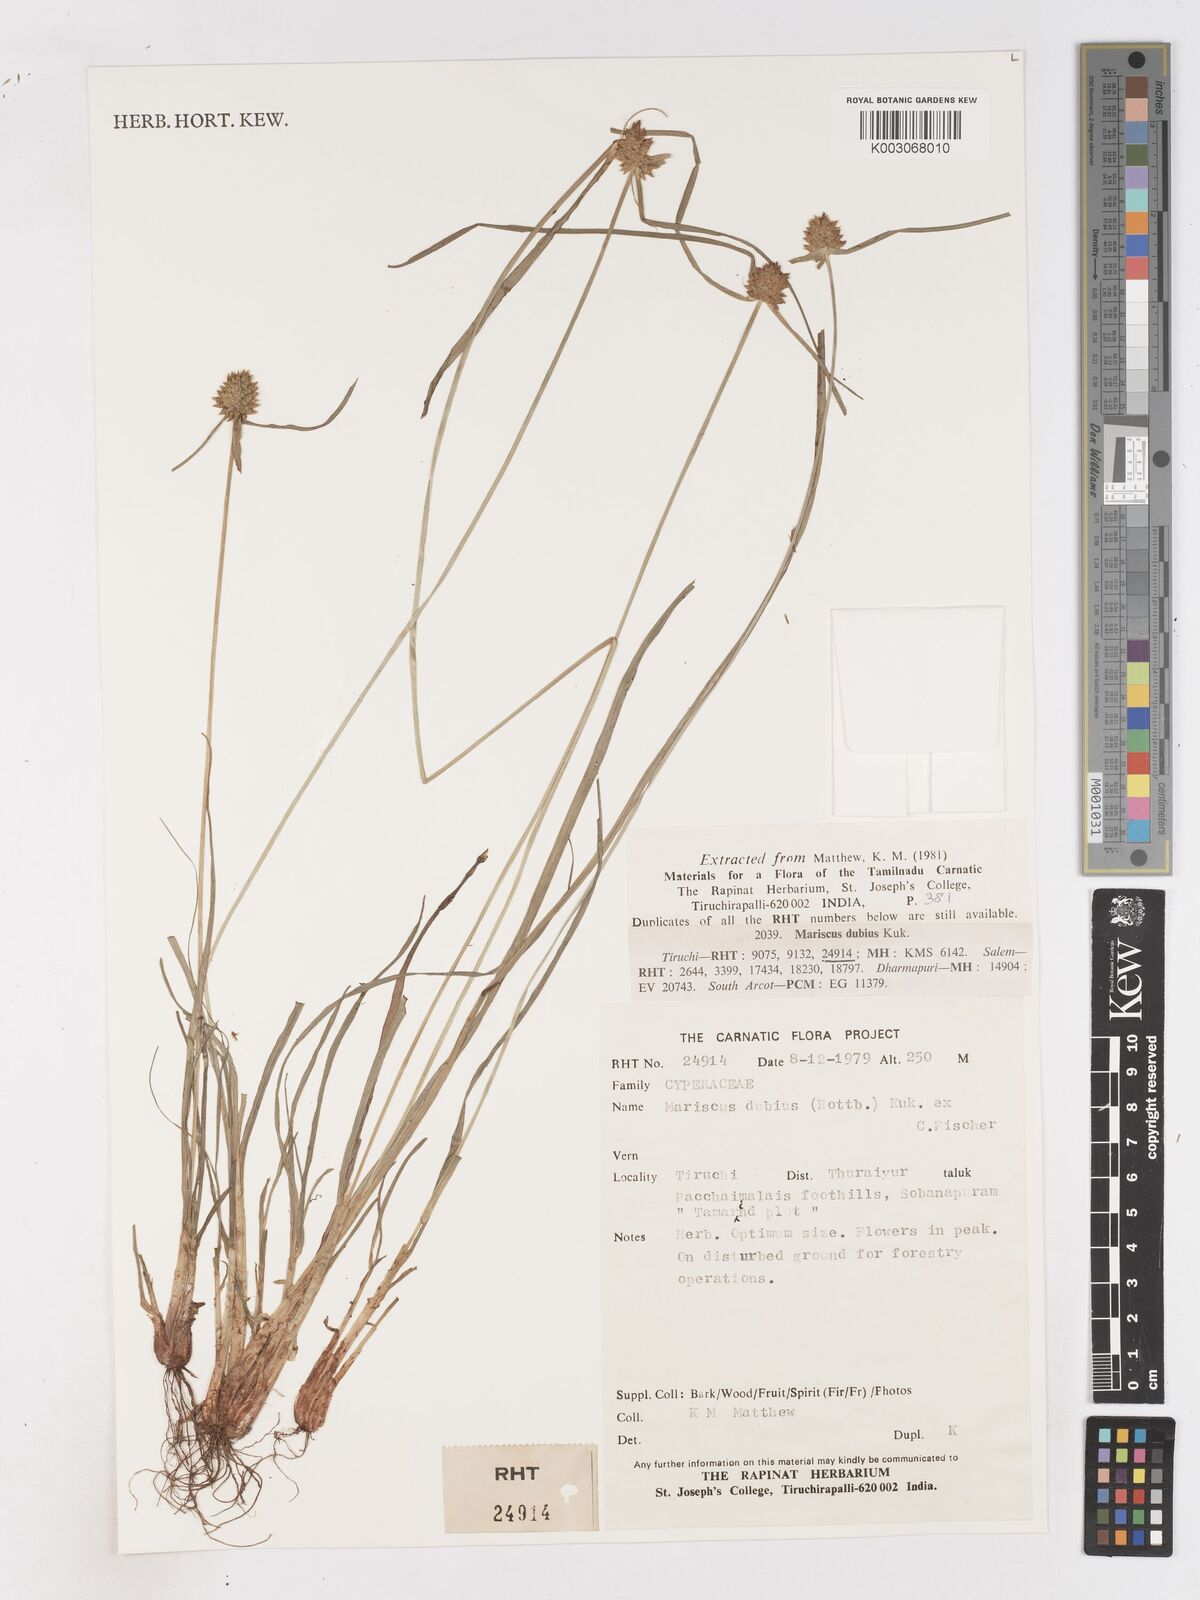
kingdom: Plantae
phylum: Tracheophyta
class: Liliopsida
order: Poales
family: Cyperaceae
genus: Cyperus
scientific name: Cyperus dubius
